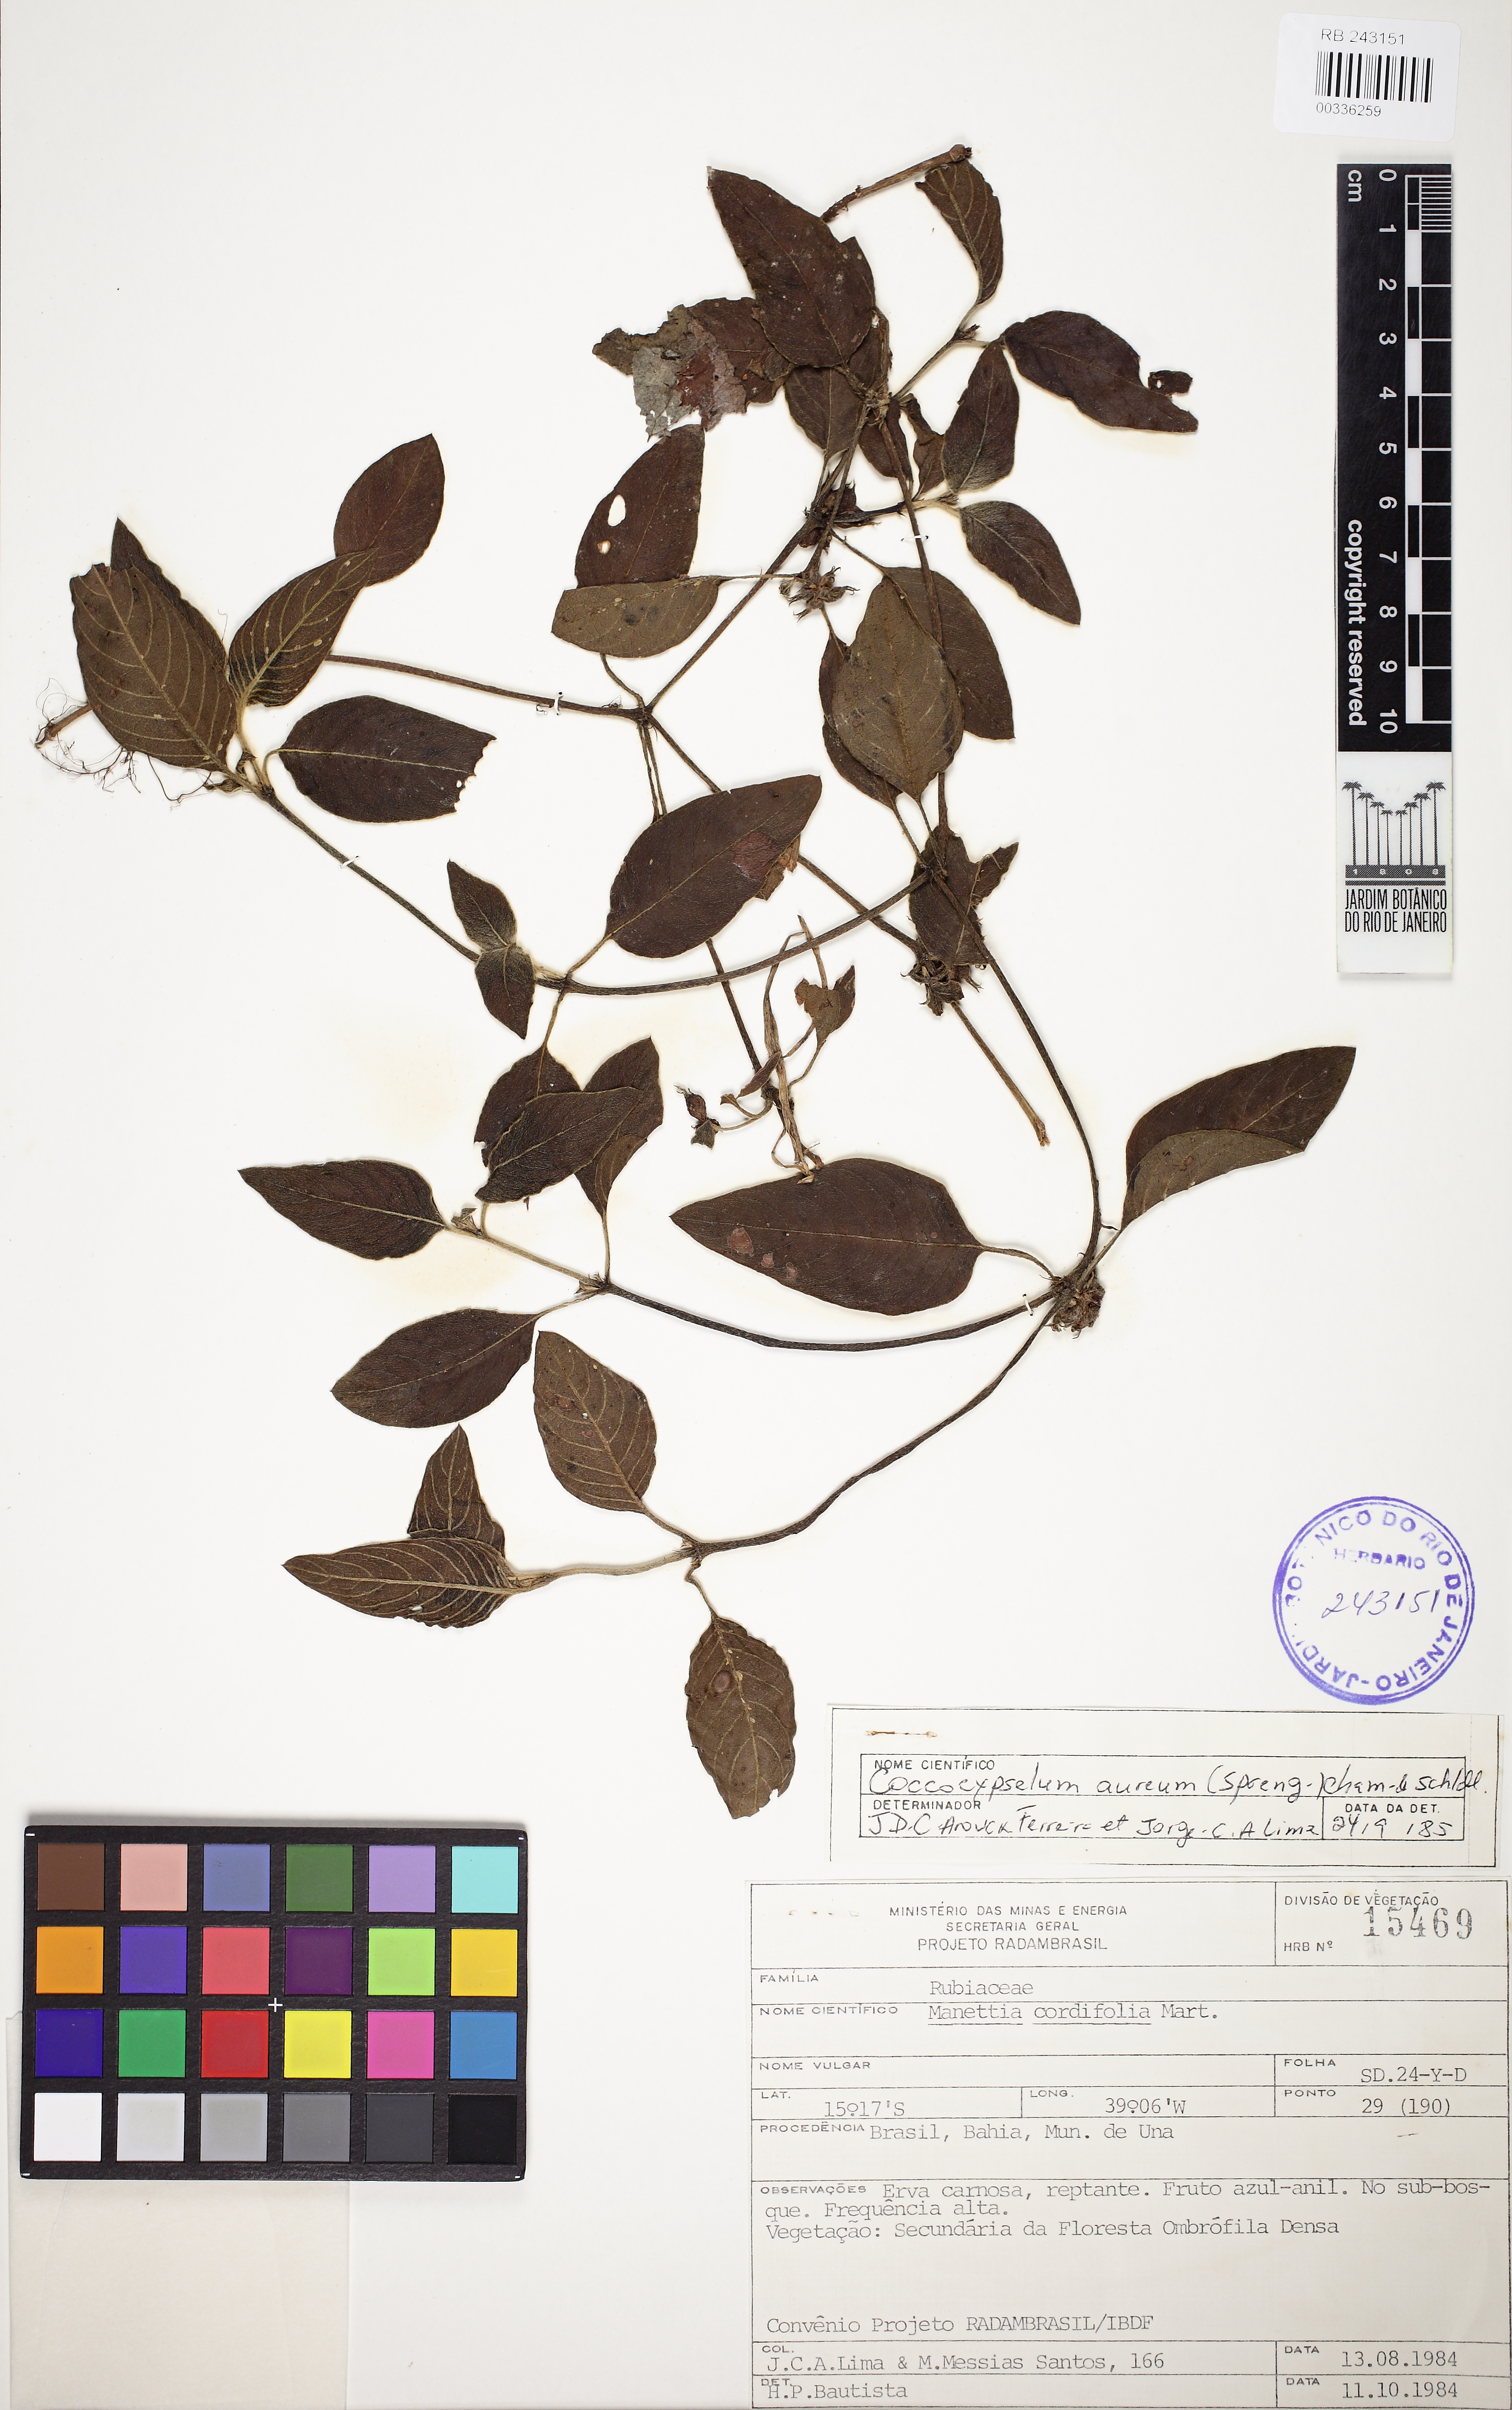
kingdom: Plantae
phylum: Tracheophyta
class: Magnoliopsida
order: Gentianales
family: Rubiaceae
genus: Coccocypselum
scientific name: Coccocypselum aureum
